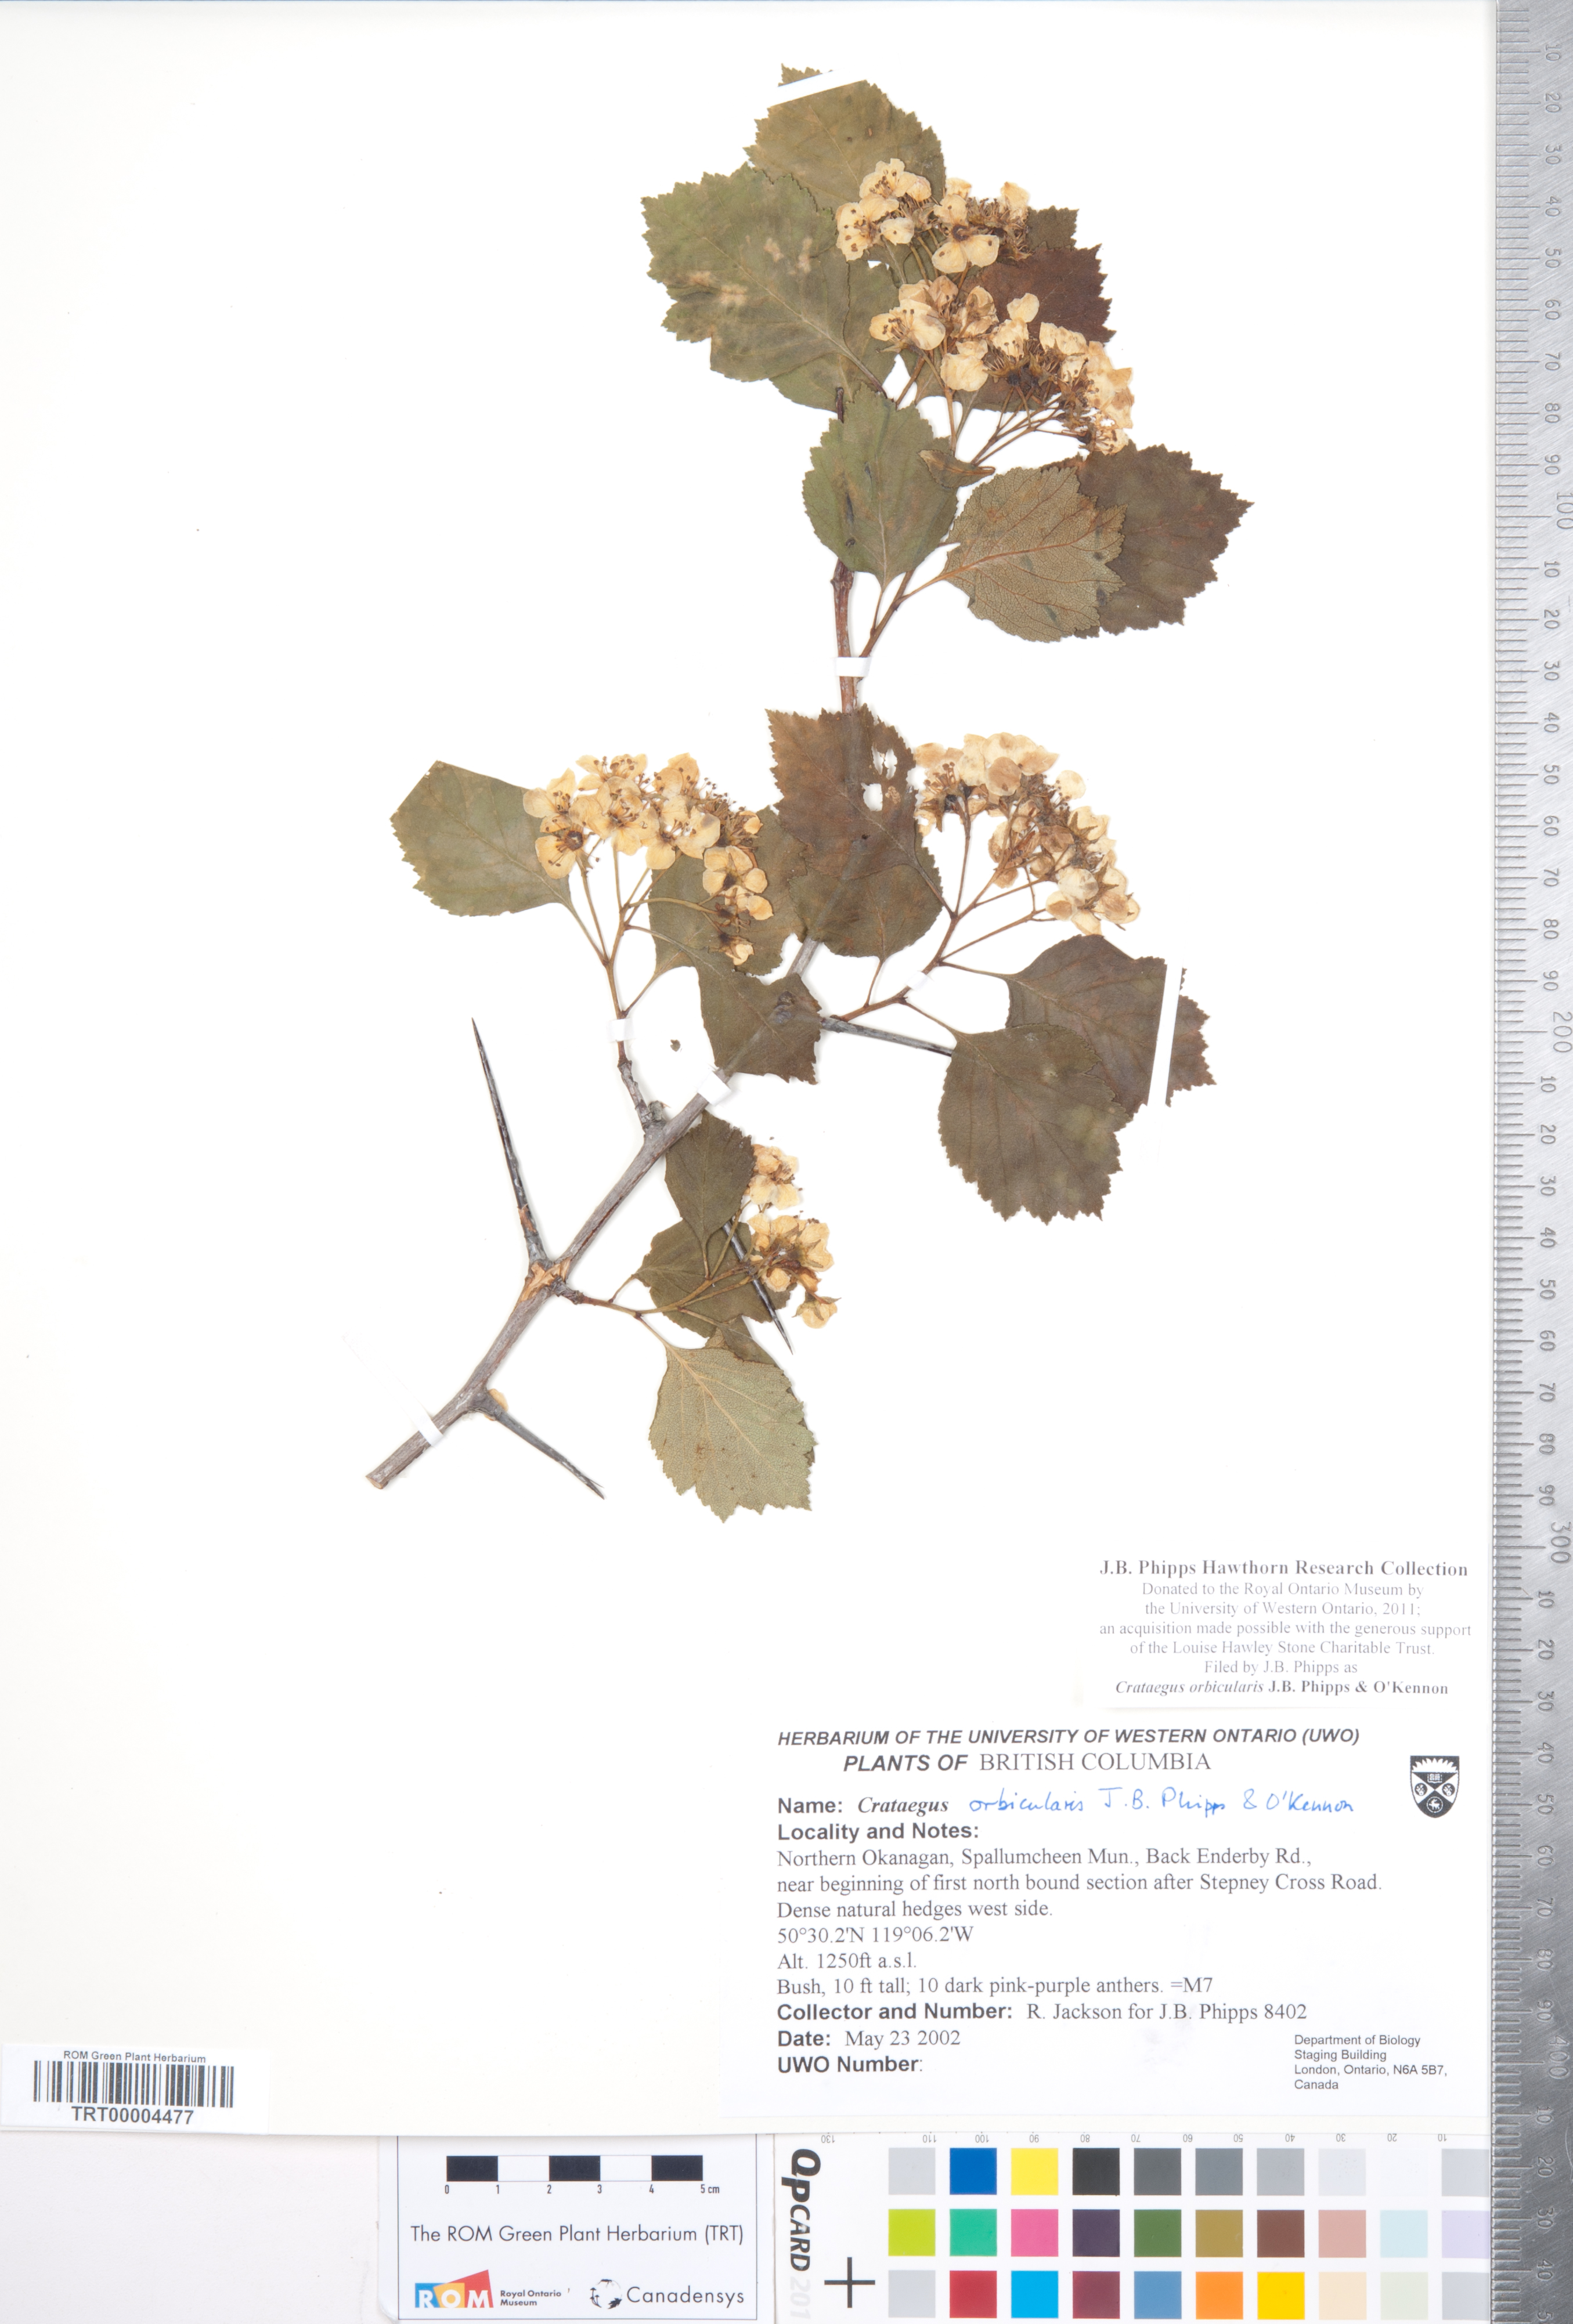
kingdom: Plantae
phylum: Tracheophyta
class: Magnoliopsida
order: Rosales
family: Rosaceae
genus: Crataegus
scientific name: Crataegus orbicularis
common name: Orbicular-leaved hawthorn
